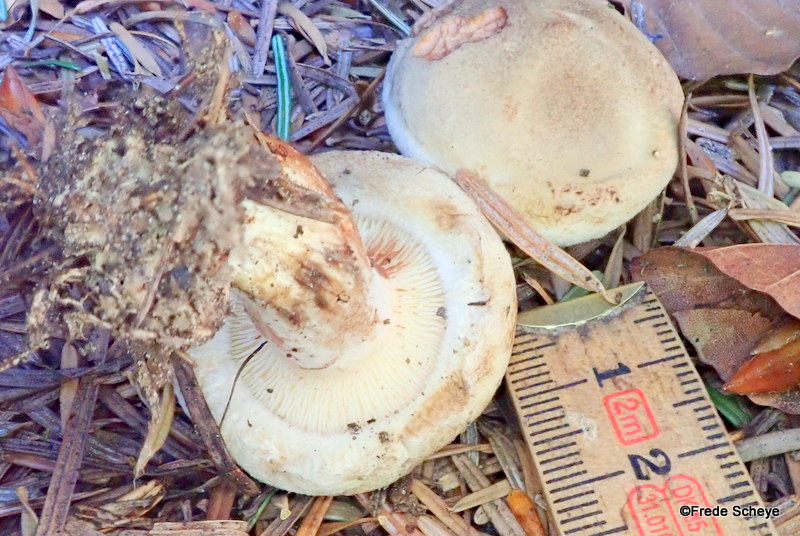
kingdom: Fungi
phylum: Basidiomycota
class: Agaricomycetes
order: Boletales
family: Paxillaceae
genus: Paxillus
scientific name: Paxillus involutus
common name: almindelig netbladhat
